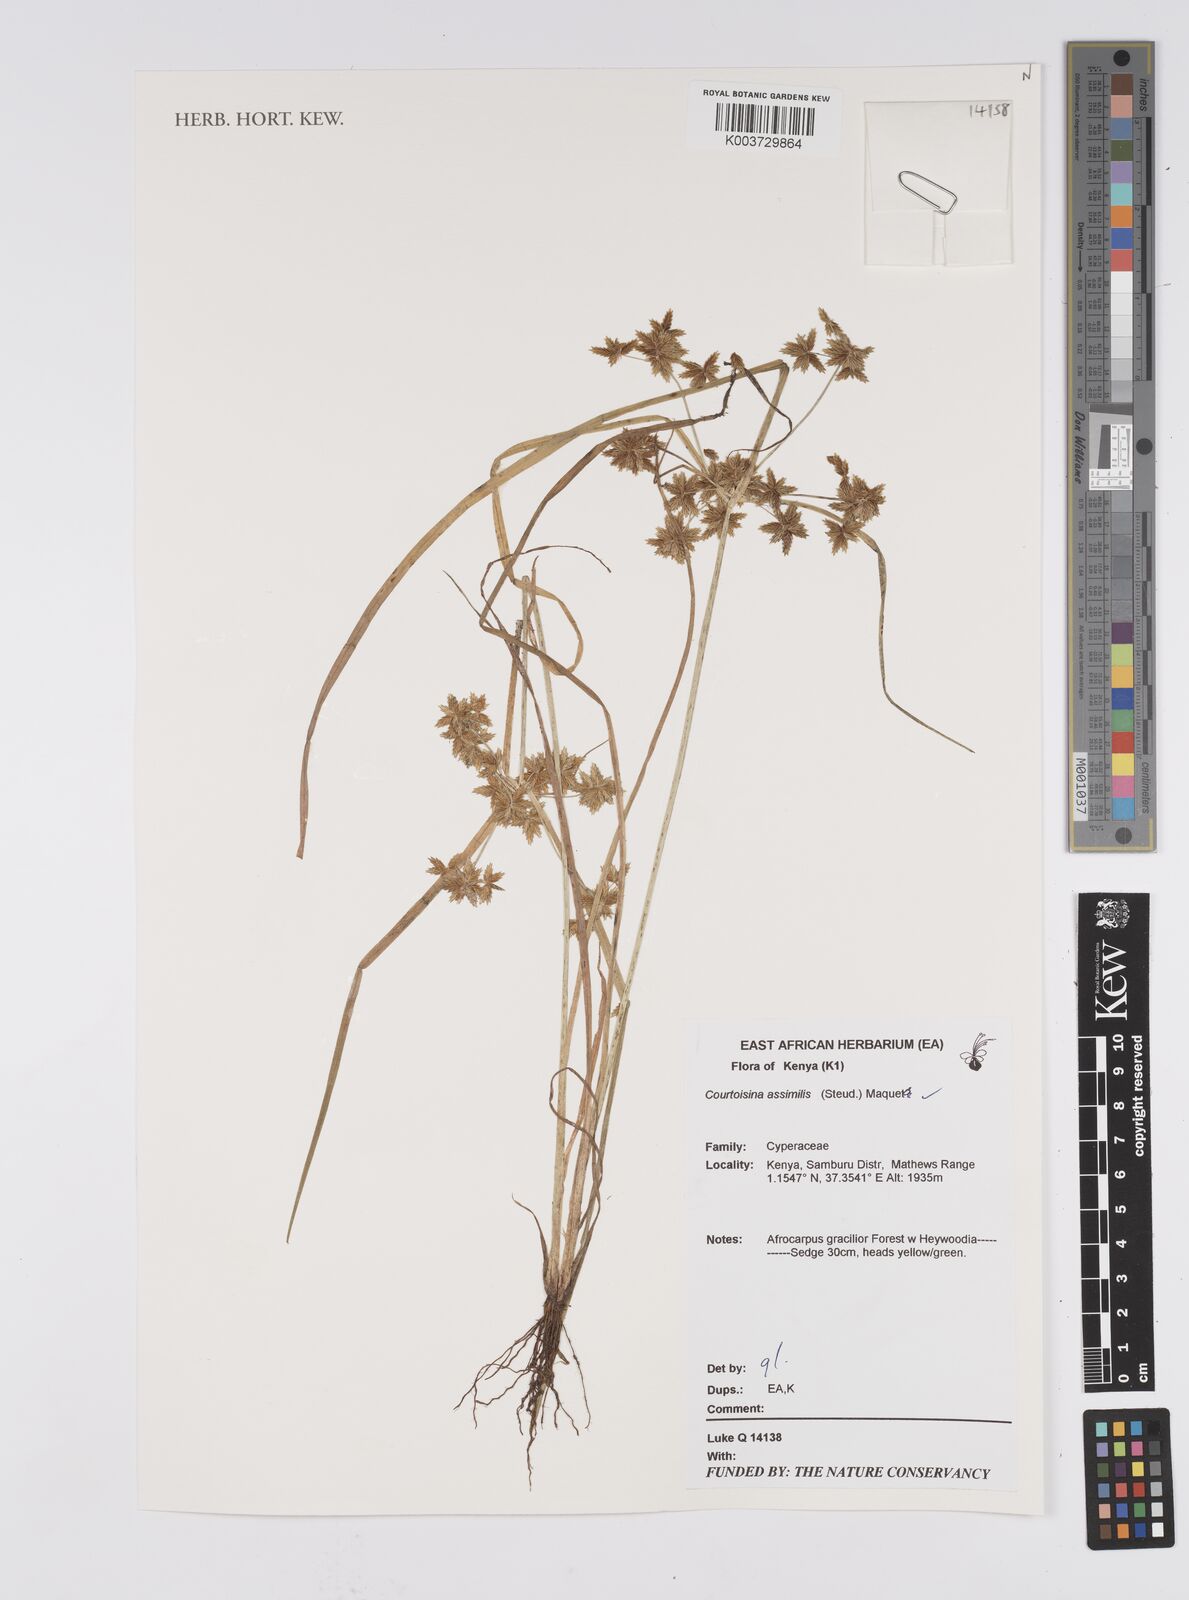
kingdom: Plantae
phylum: Tracheophyta
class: Liliopsida
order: Poales
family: Cyperaceae
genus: Cyperus
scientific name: Cyperus assimilis
